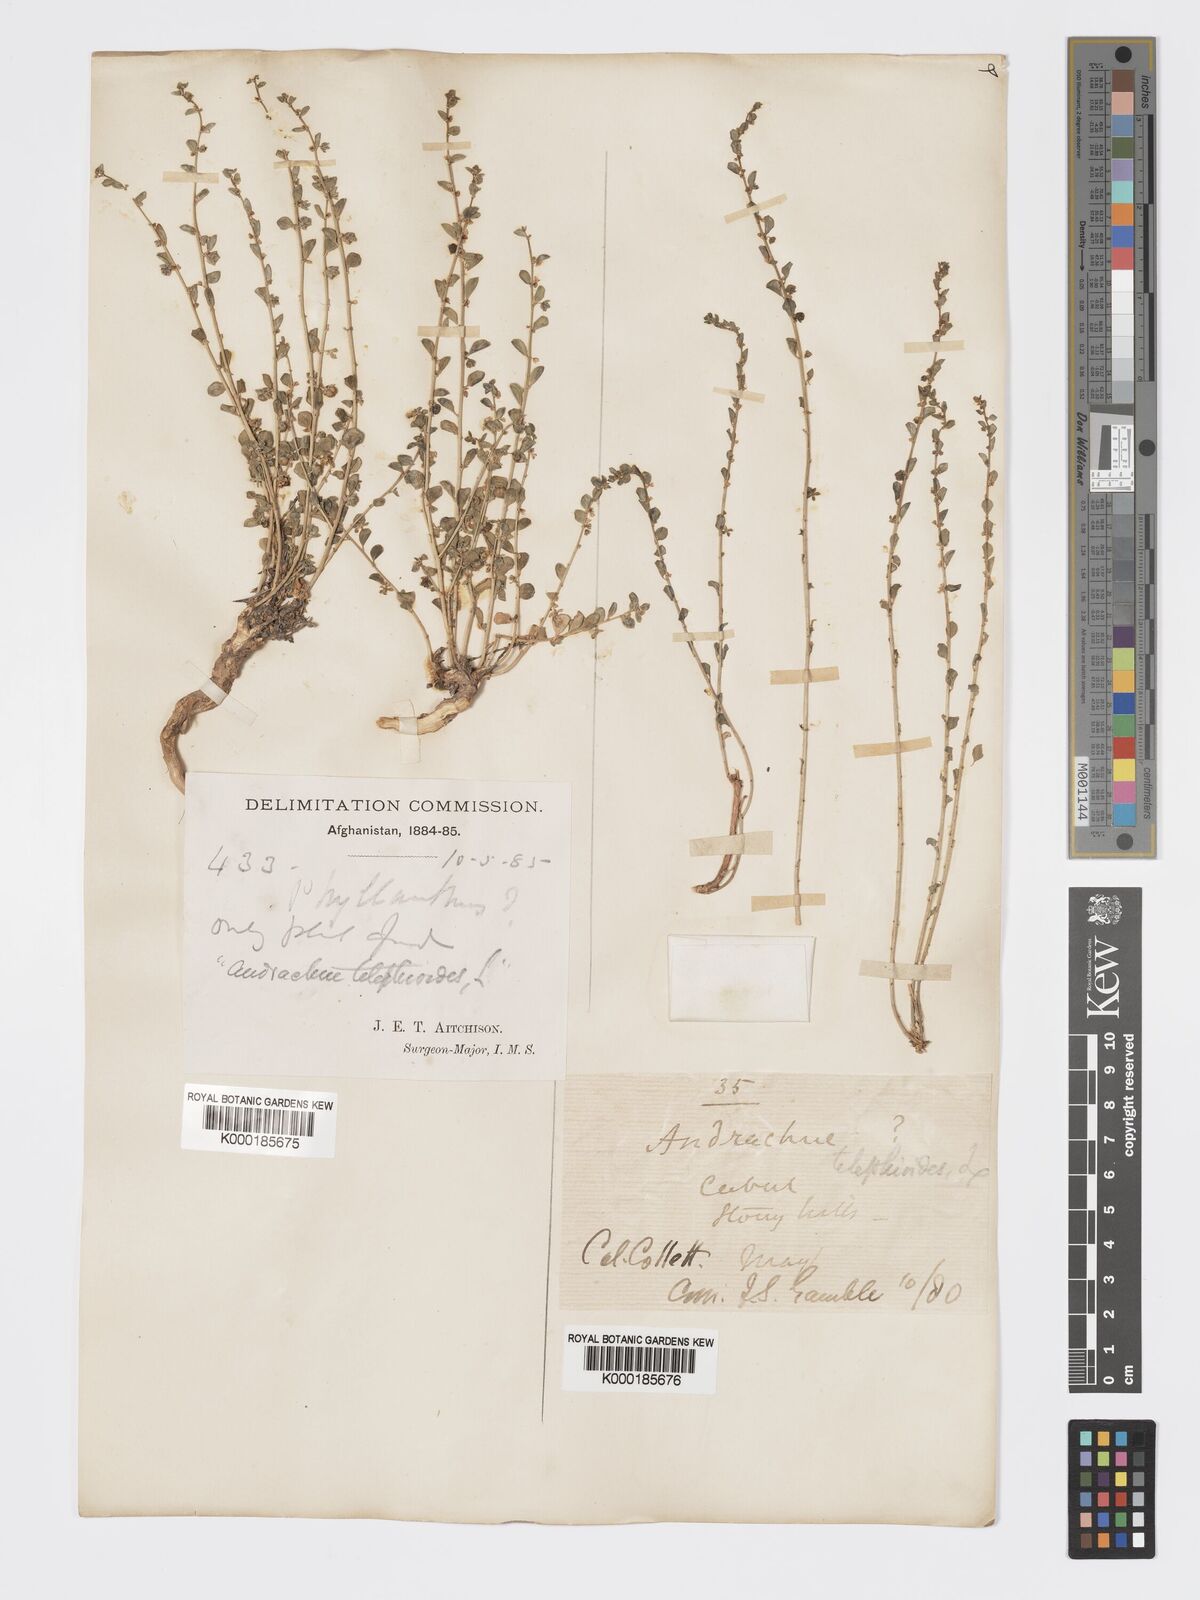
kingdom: Plantae
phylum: Tracheophyta
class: Magnoliopsida
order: Malpighiales
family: Phyllanthaceae
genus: Andrachne
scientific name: Andrachne telephioides
